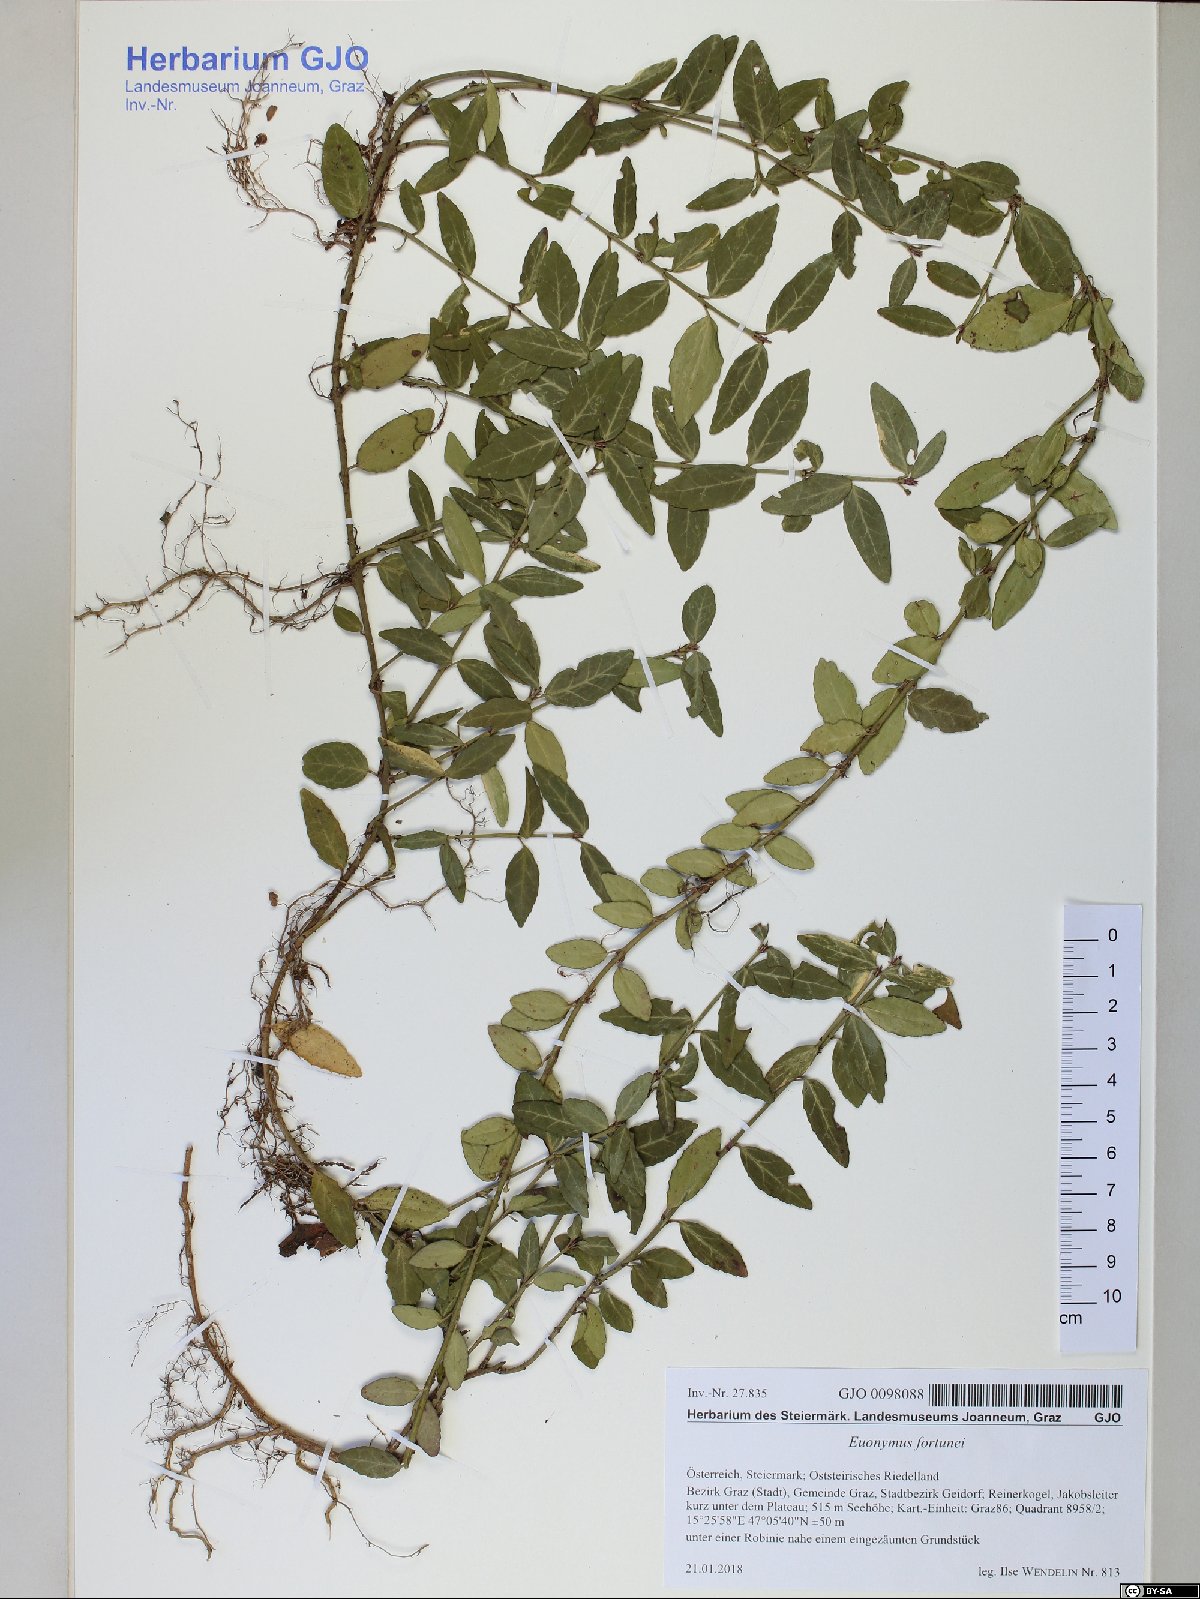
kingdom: Plantae
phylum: Tracheophyta
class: Magnoliopsida
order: Celastrales
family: Celastraceae
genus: Euonymus
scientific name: Euonymus fortunei
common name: Climbing euonymus
